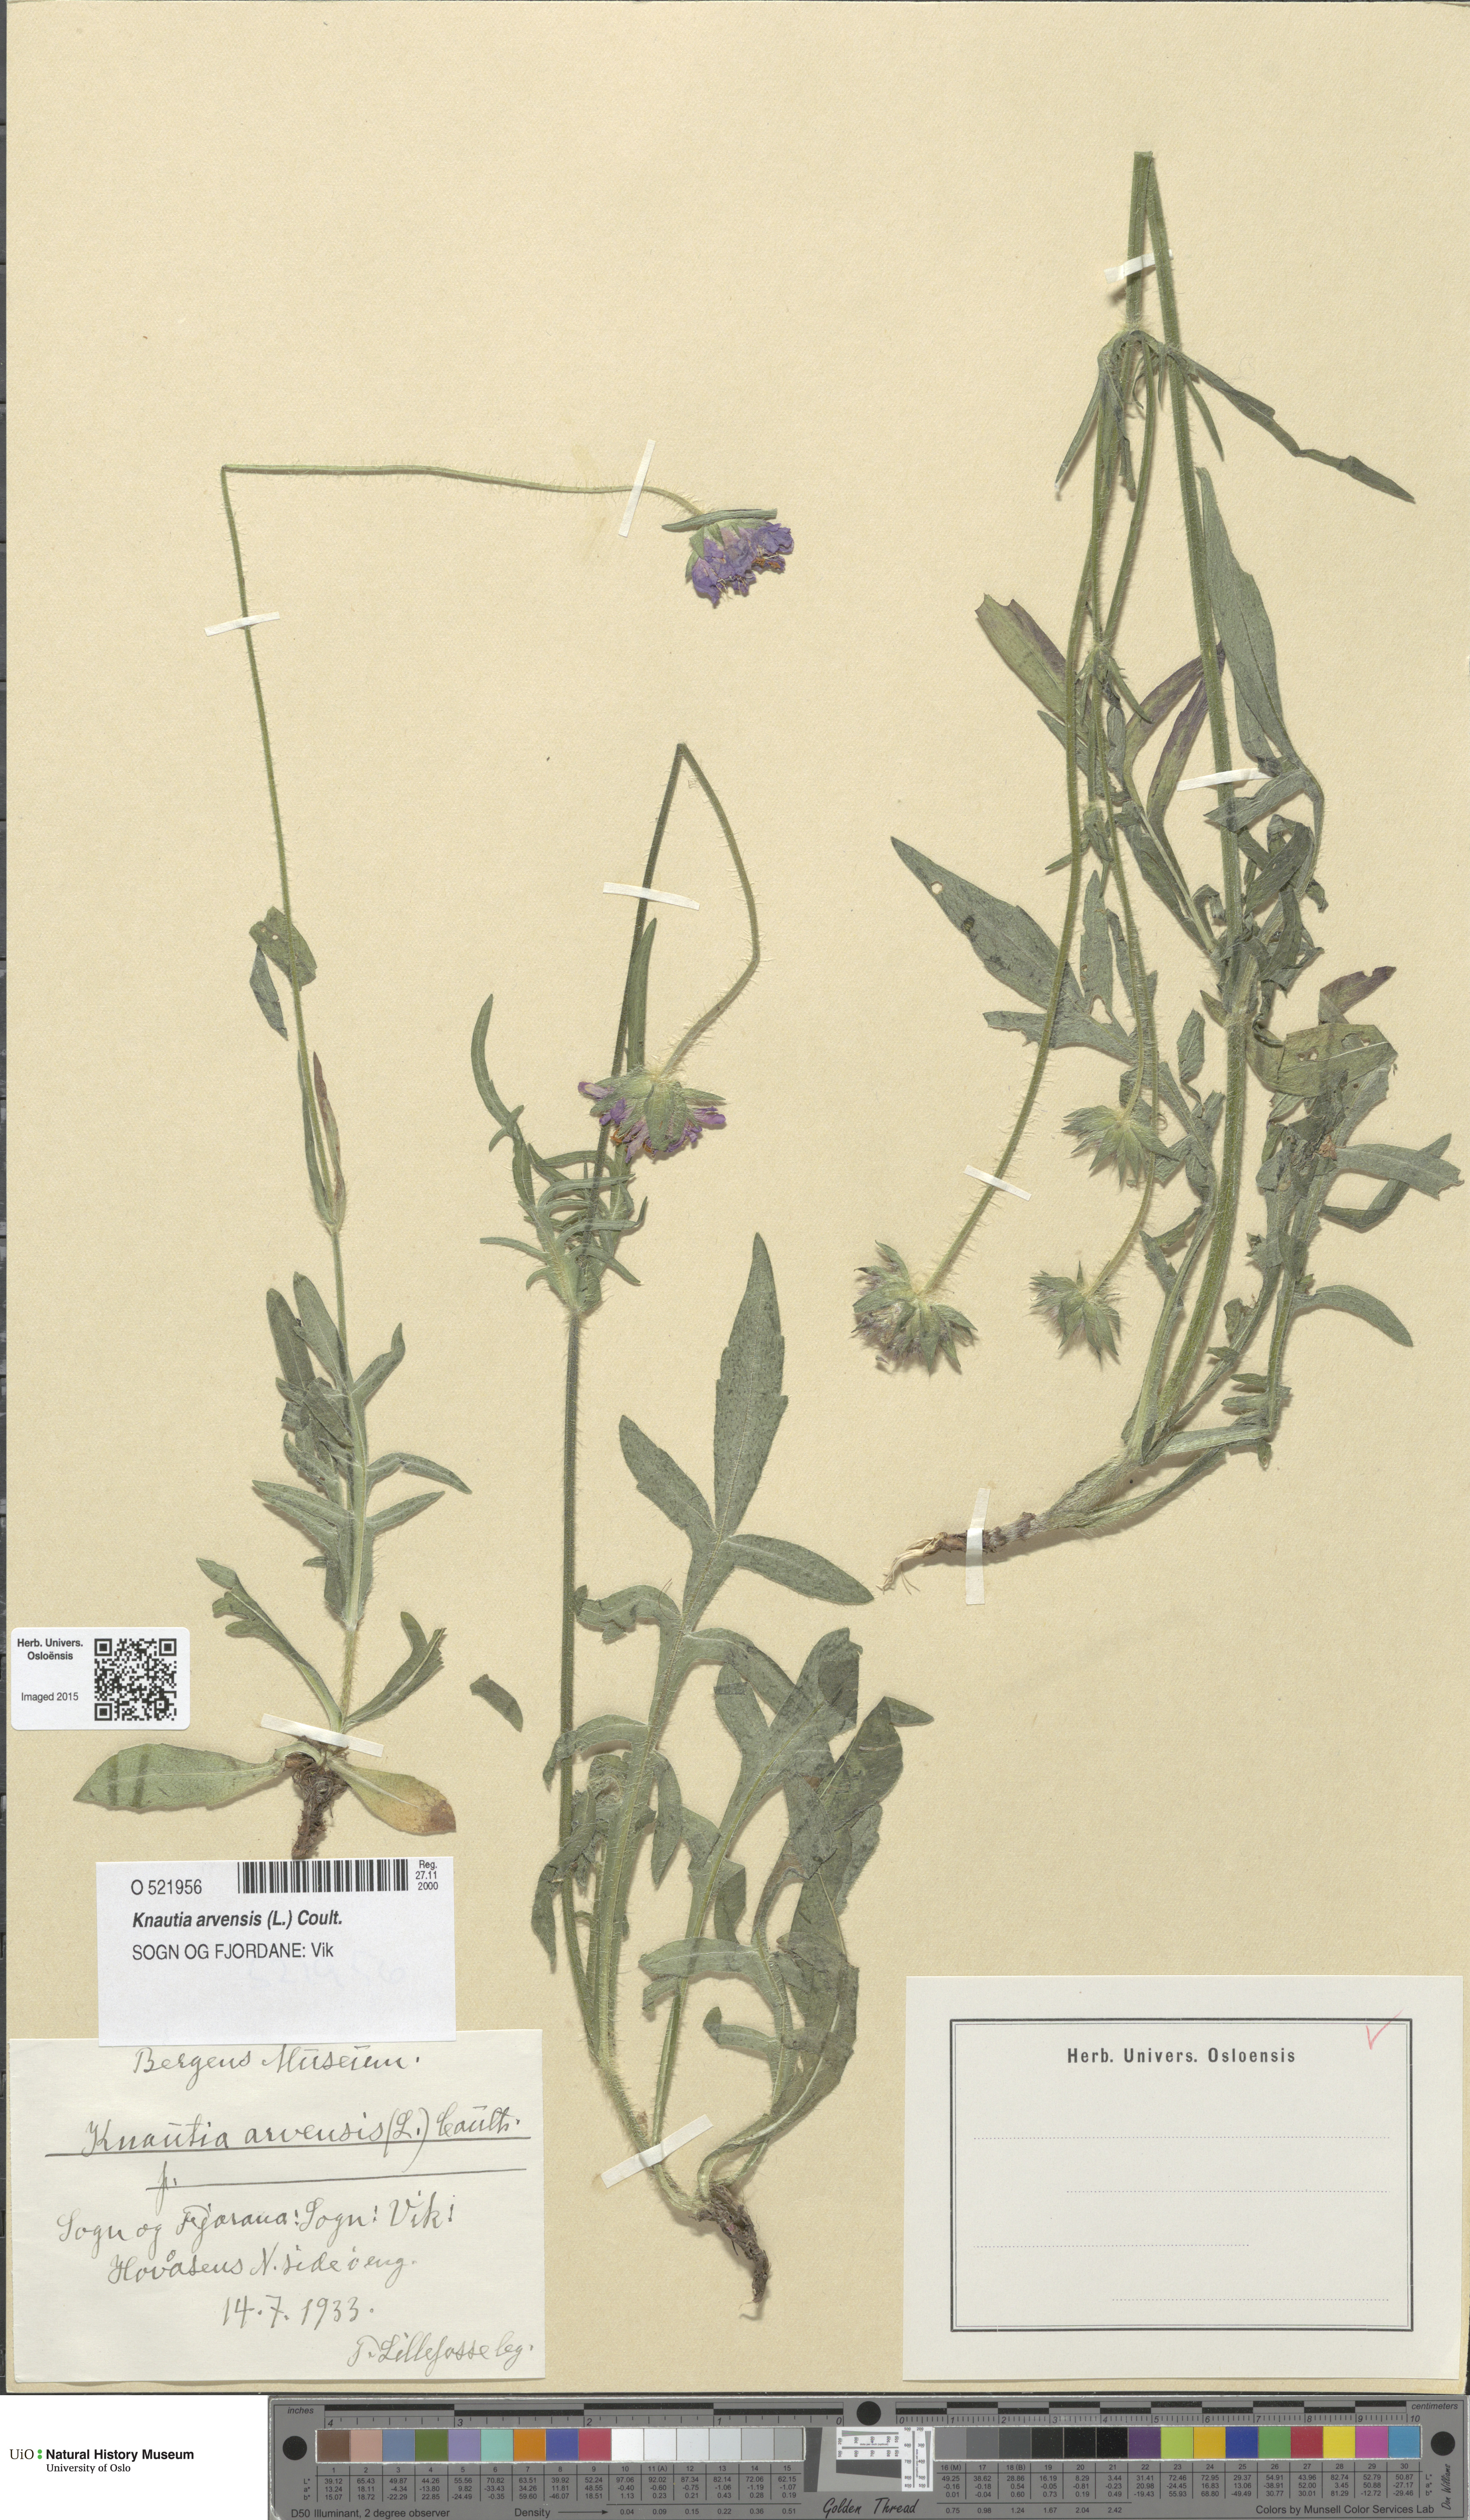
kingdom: Plantae
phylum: Tracheophyta
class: Magnoliopsida
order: Dipsacales
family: Caprifoliaceae
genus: Knautia
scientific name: Knautia arvensis
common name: Field scabiosa
